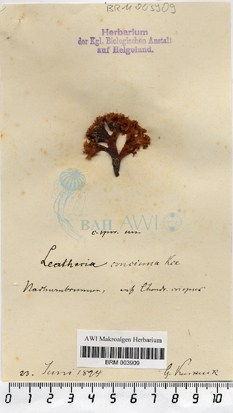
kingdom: Chromista
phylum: Ochrophyta
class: Phaeophyceae
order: Ectocarpales
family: Chordariaceae
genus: Corynophlaea
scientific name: Corynophlaea crispa
